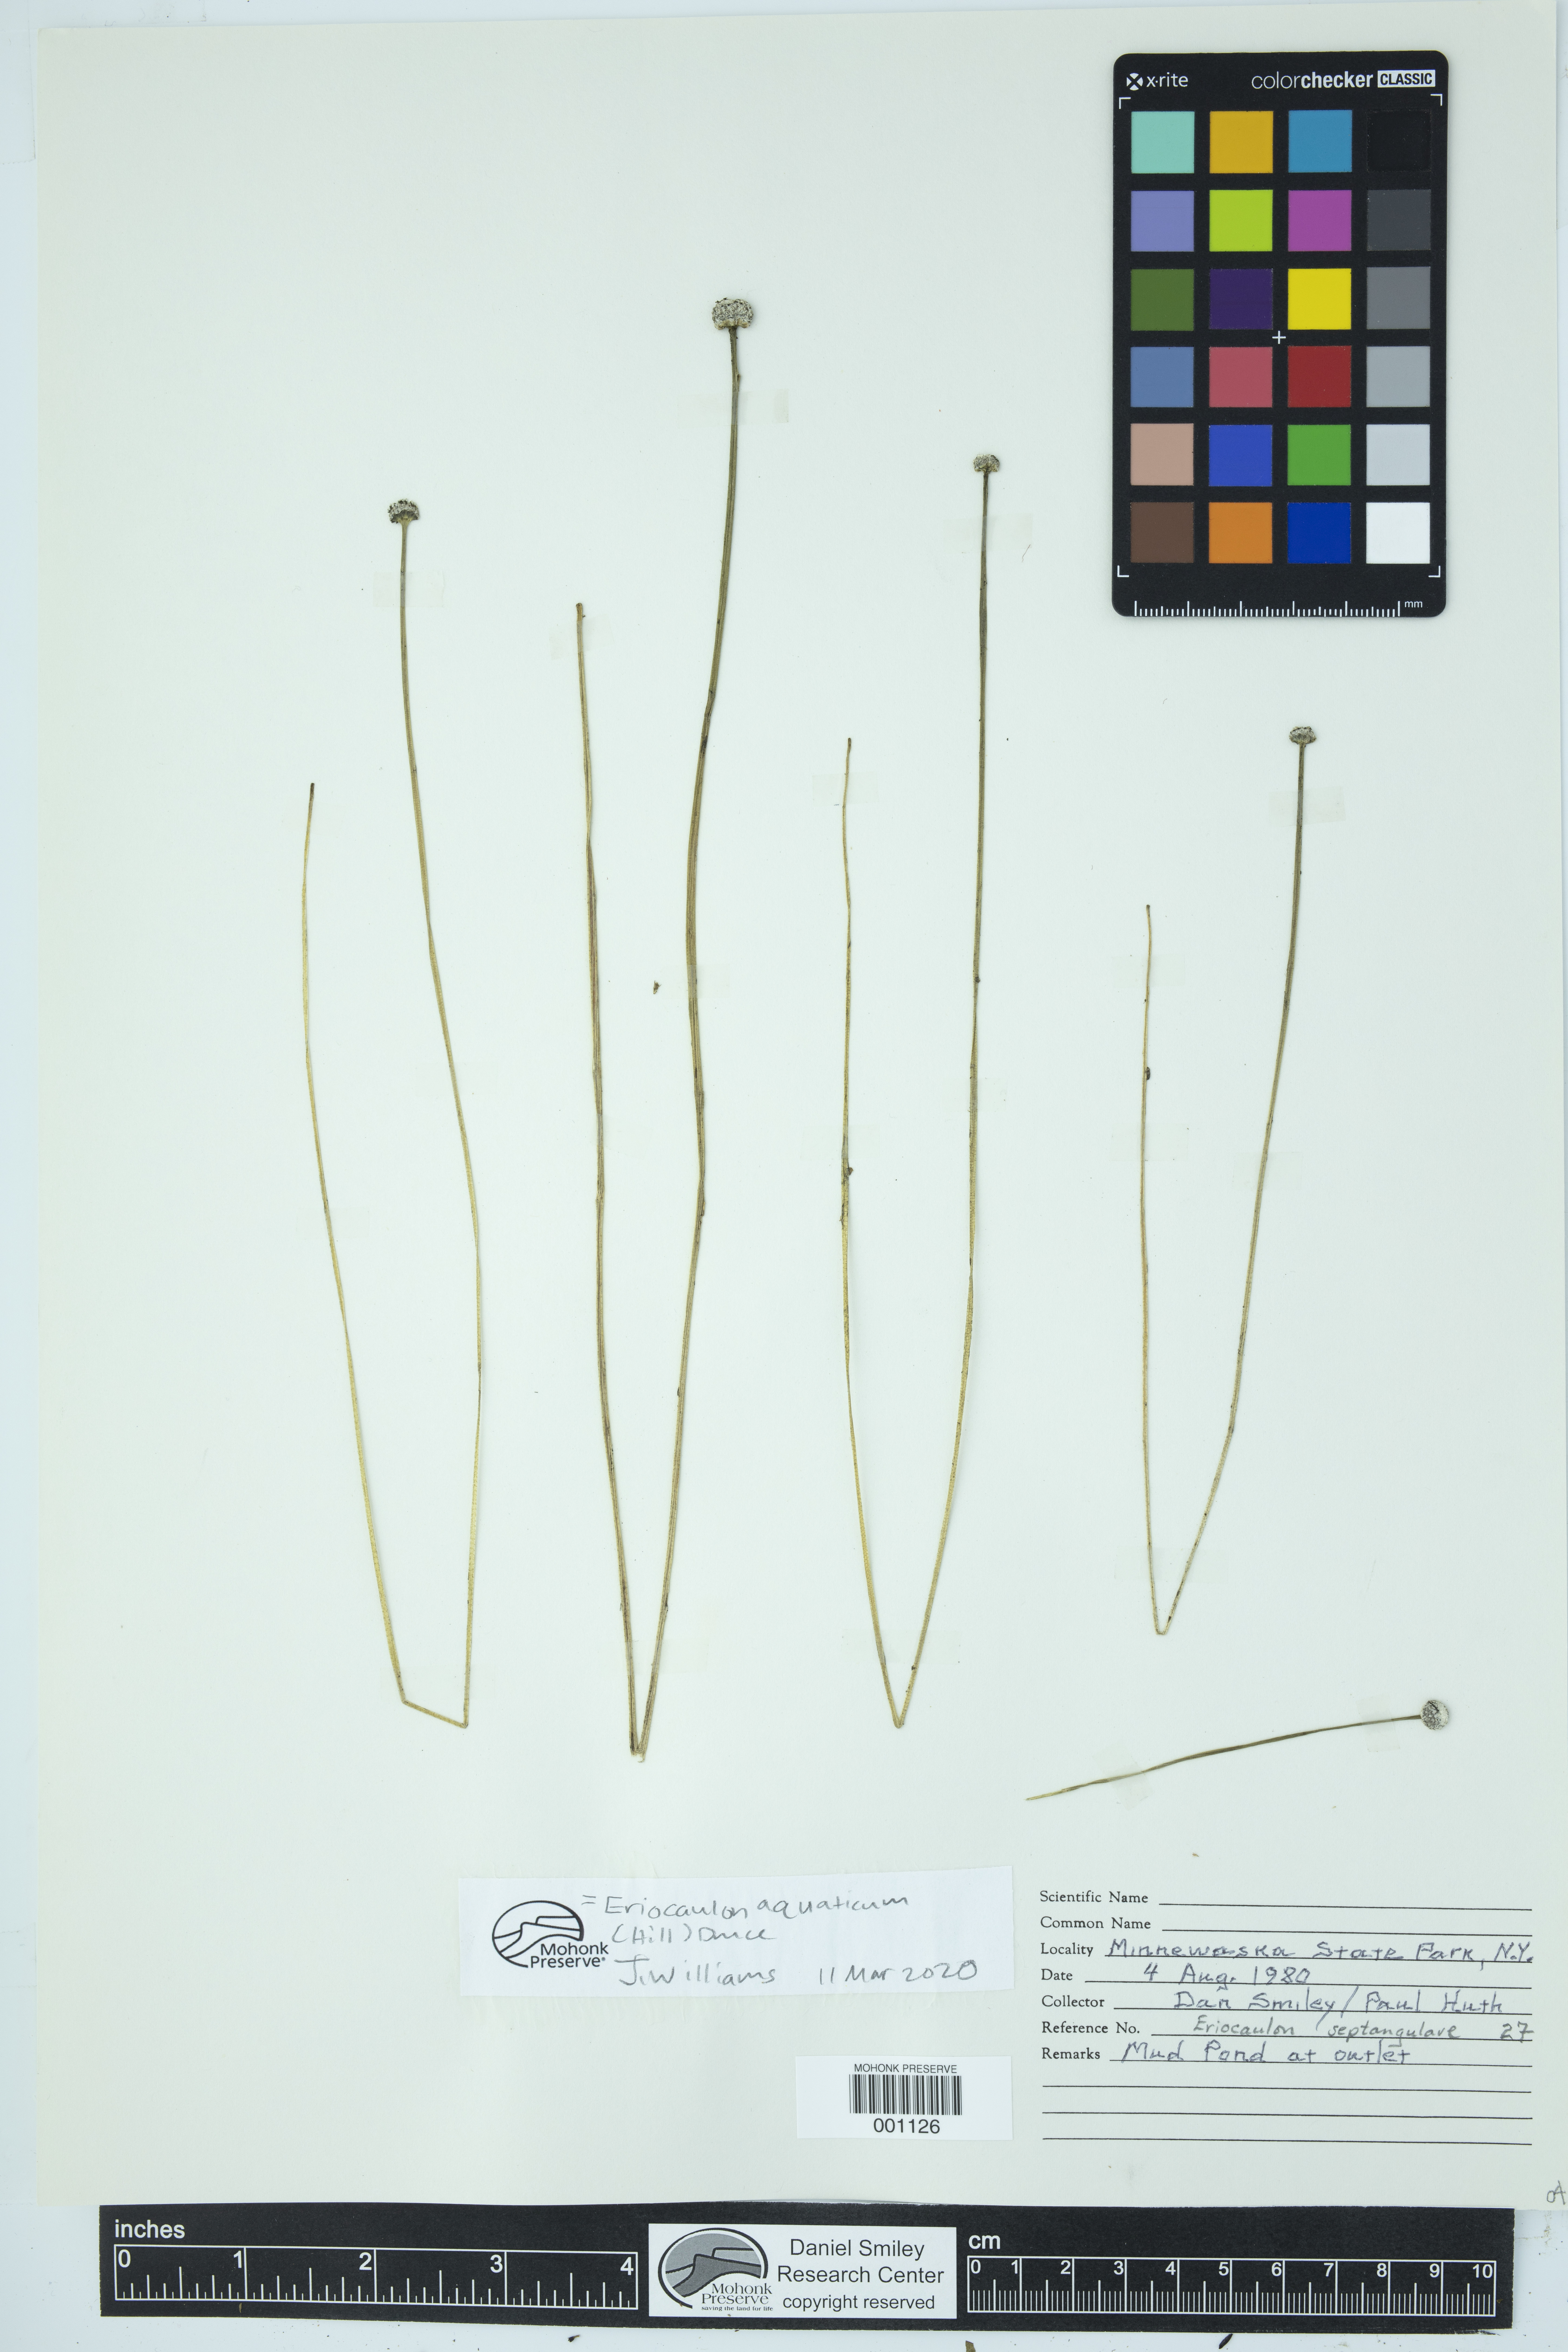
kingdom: Plantae
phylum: Tracheophyta
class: Liliopsida
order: Poales
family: Eriocaulaceae
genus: Eriocaulon
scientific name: Eriocaulon aquaticum
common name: Pipewort
